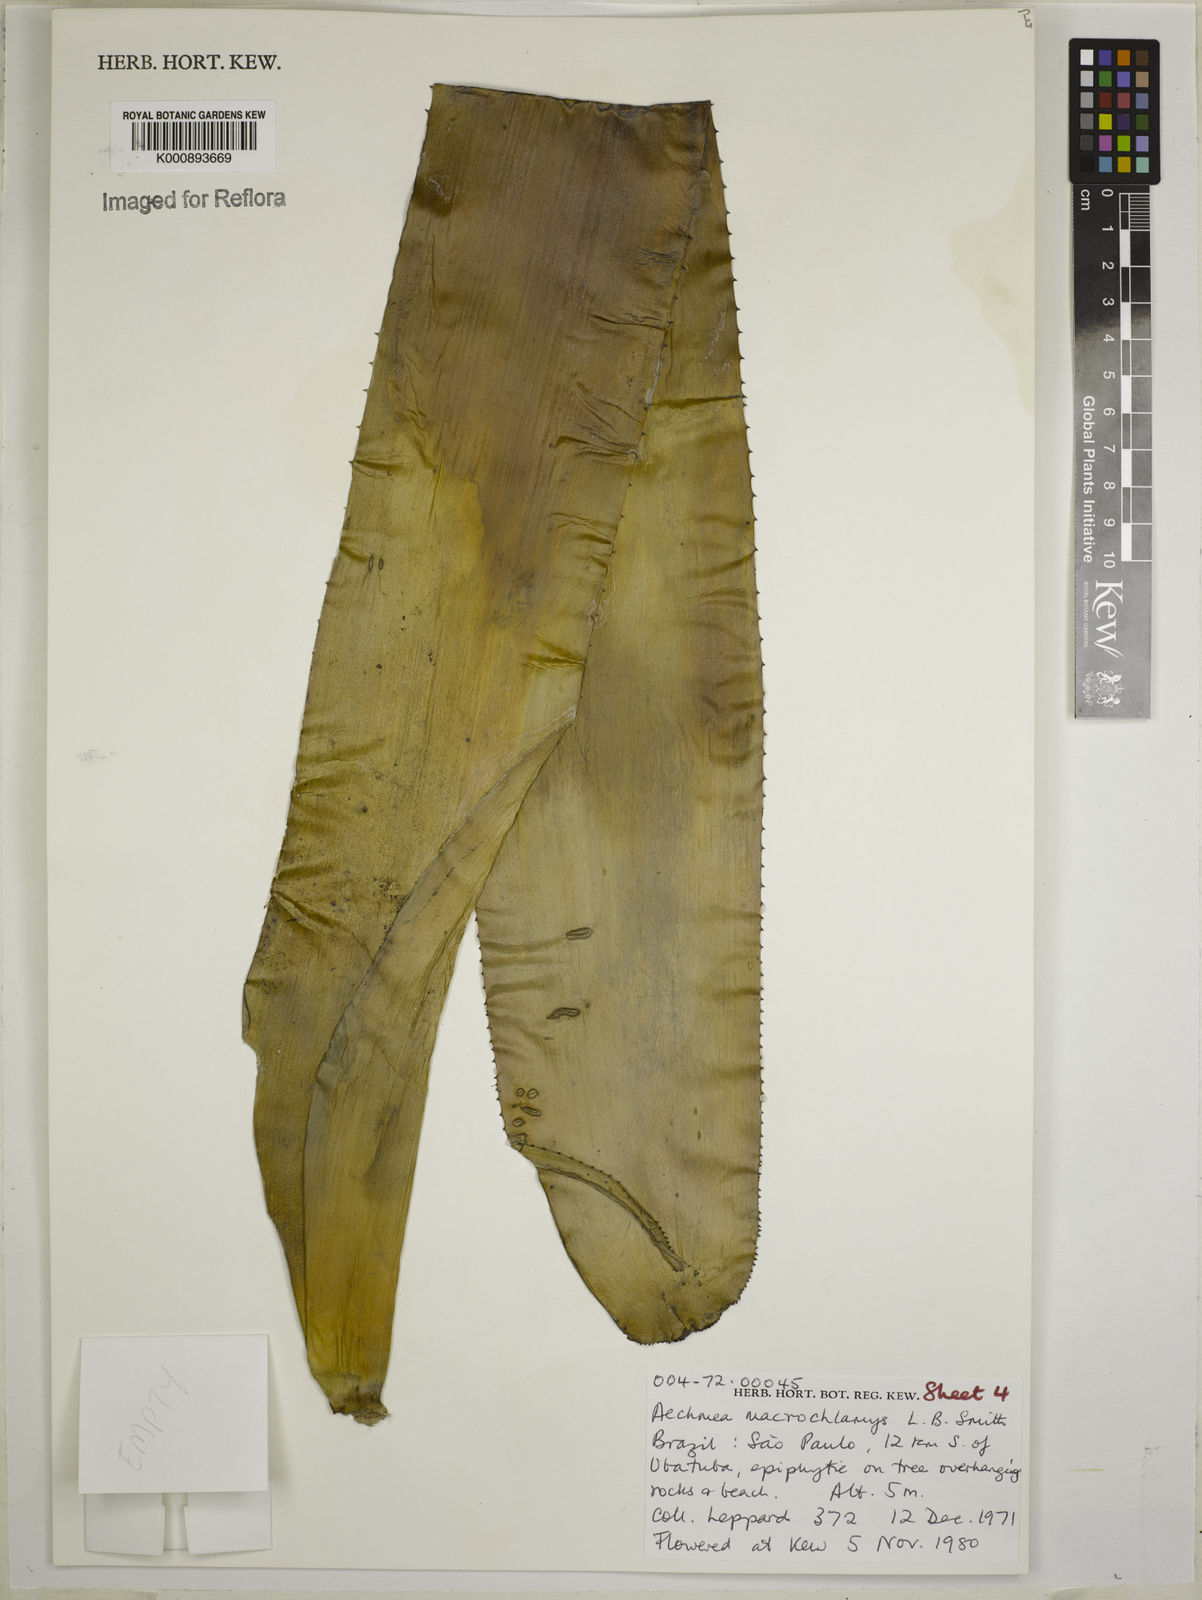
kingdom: Plantae
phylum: Tracheophyta
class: Liliopsida
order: Poales
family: Bromeliaceae
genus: Aechmea
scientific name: Aechmea macrochlamys
